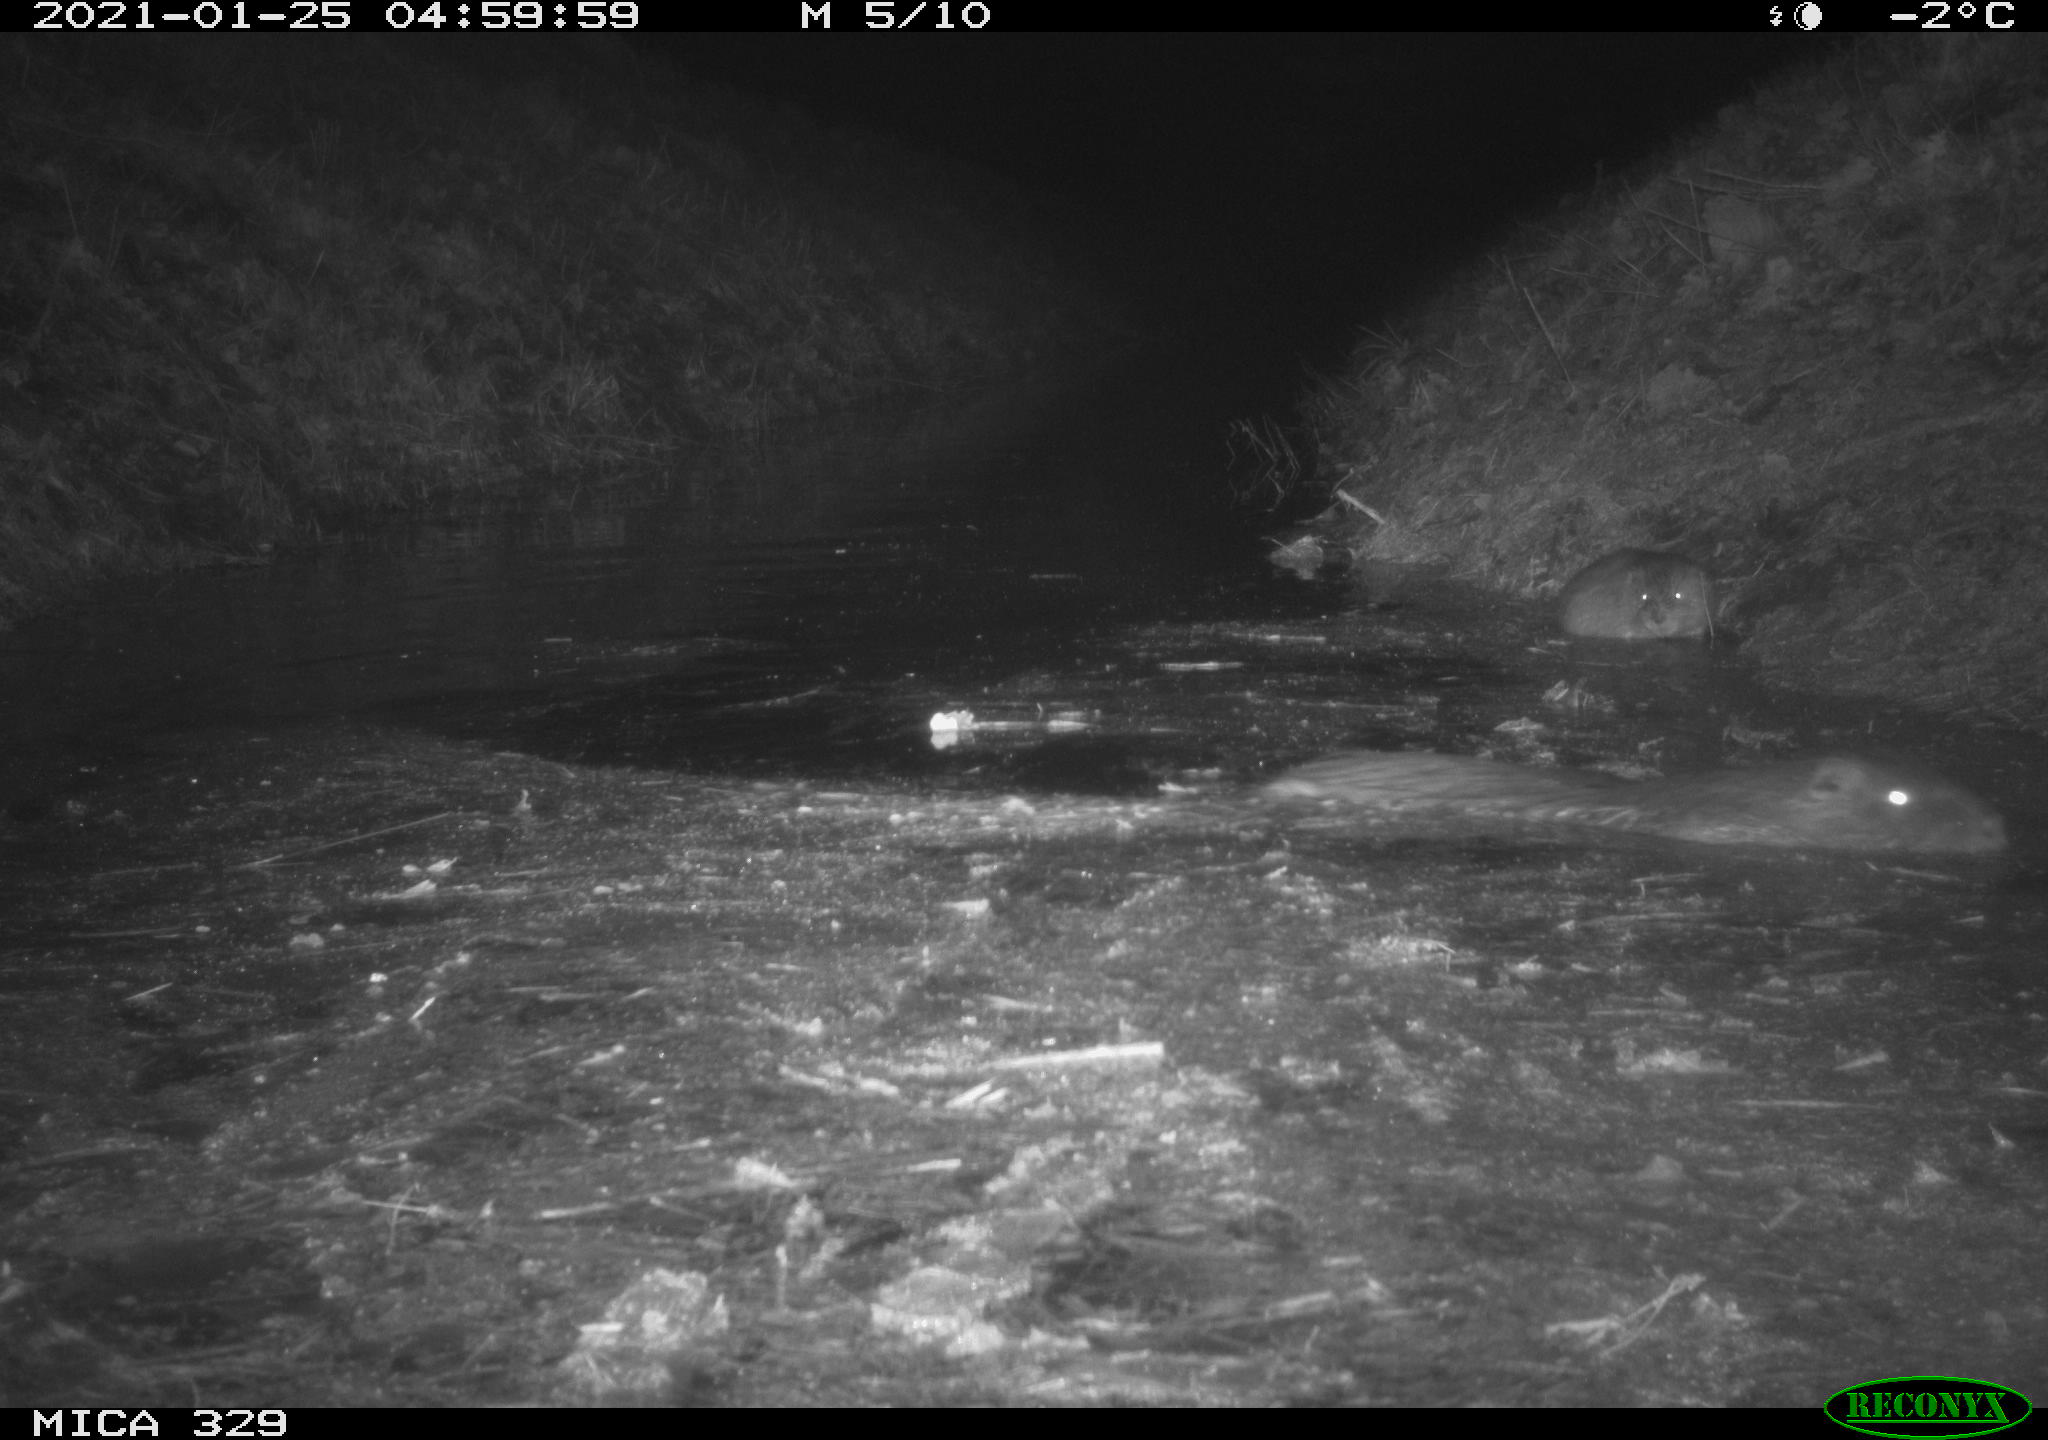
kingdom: Animalia
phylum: Chordata
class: Mammalia
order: Rodentia
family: Myocastoridae
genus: Myocastor
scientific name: Myocastor coypus
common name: Coypu
